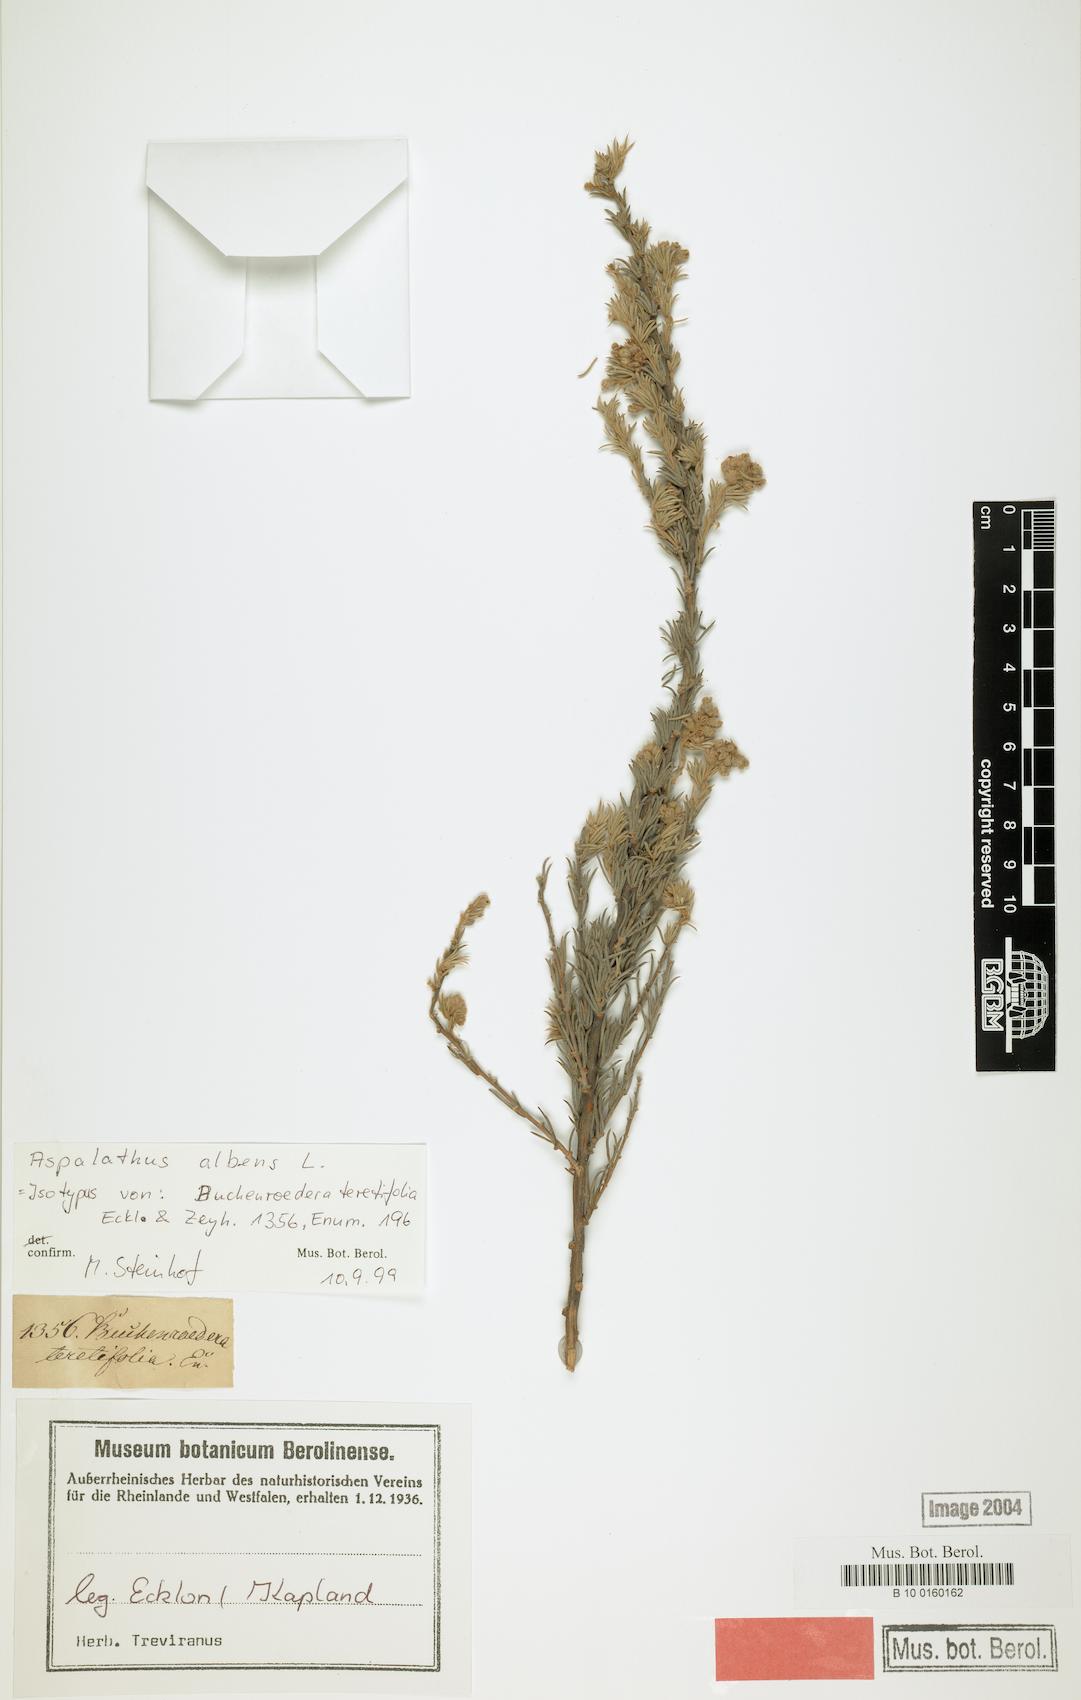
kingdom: Plantae
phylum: Tracheophyta
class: Magnoliopsida
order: Fabales
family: Fabaceae
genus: Aspalathus
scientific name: Aspalathus albens
